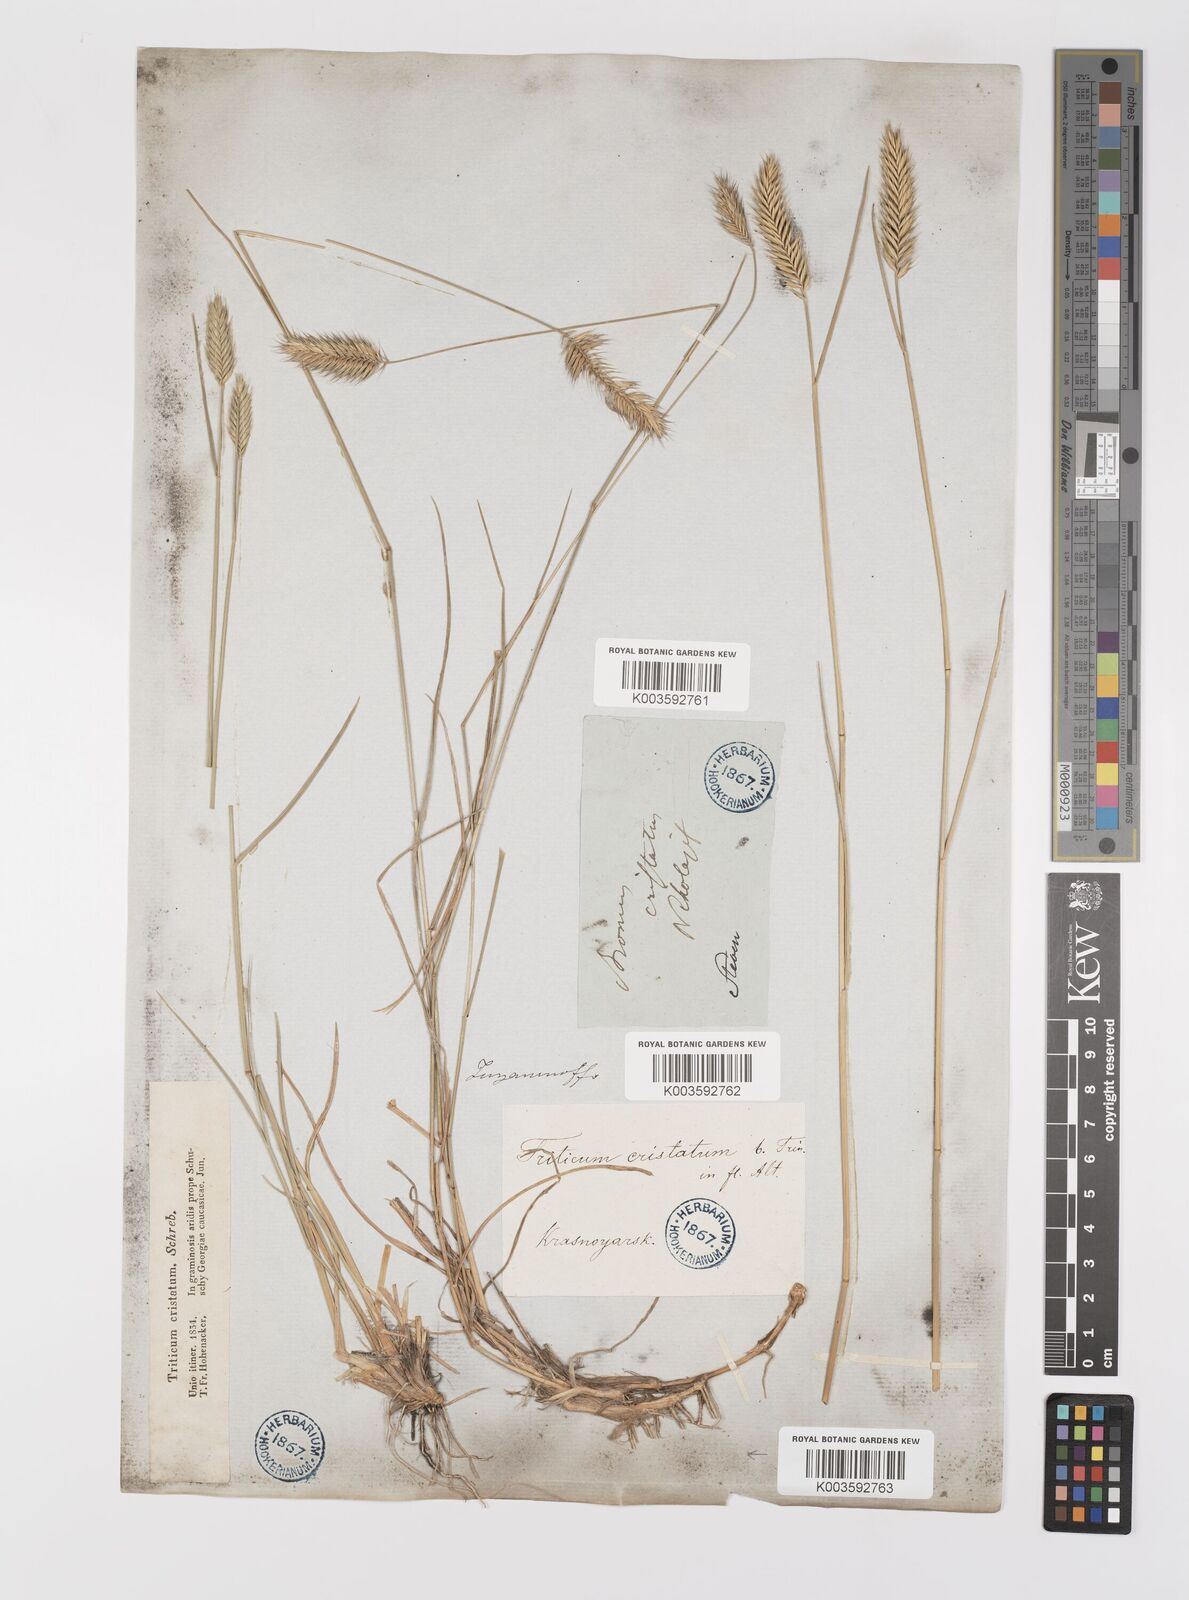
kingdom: Plantae
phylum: Tracheophyta
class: Liliopsida
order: Poales
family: Poaceae
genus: Agropyron
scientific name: Agropyron cristatum
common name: Crested wheatgrass
